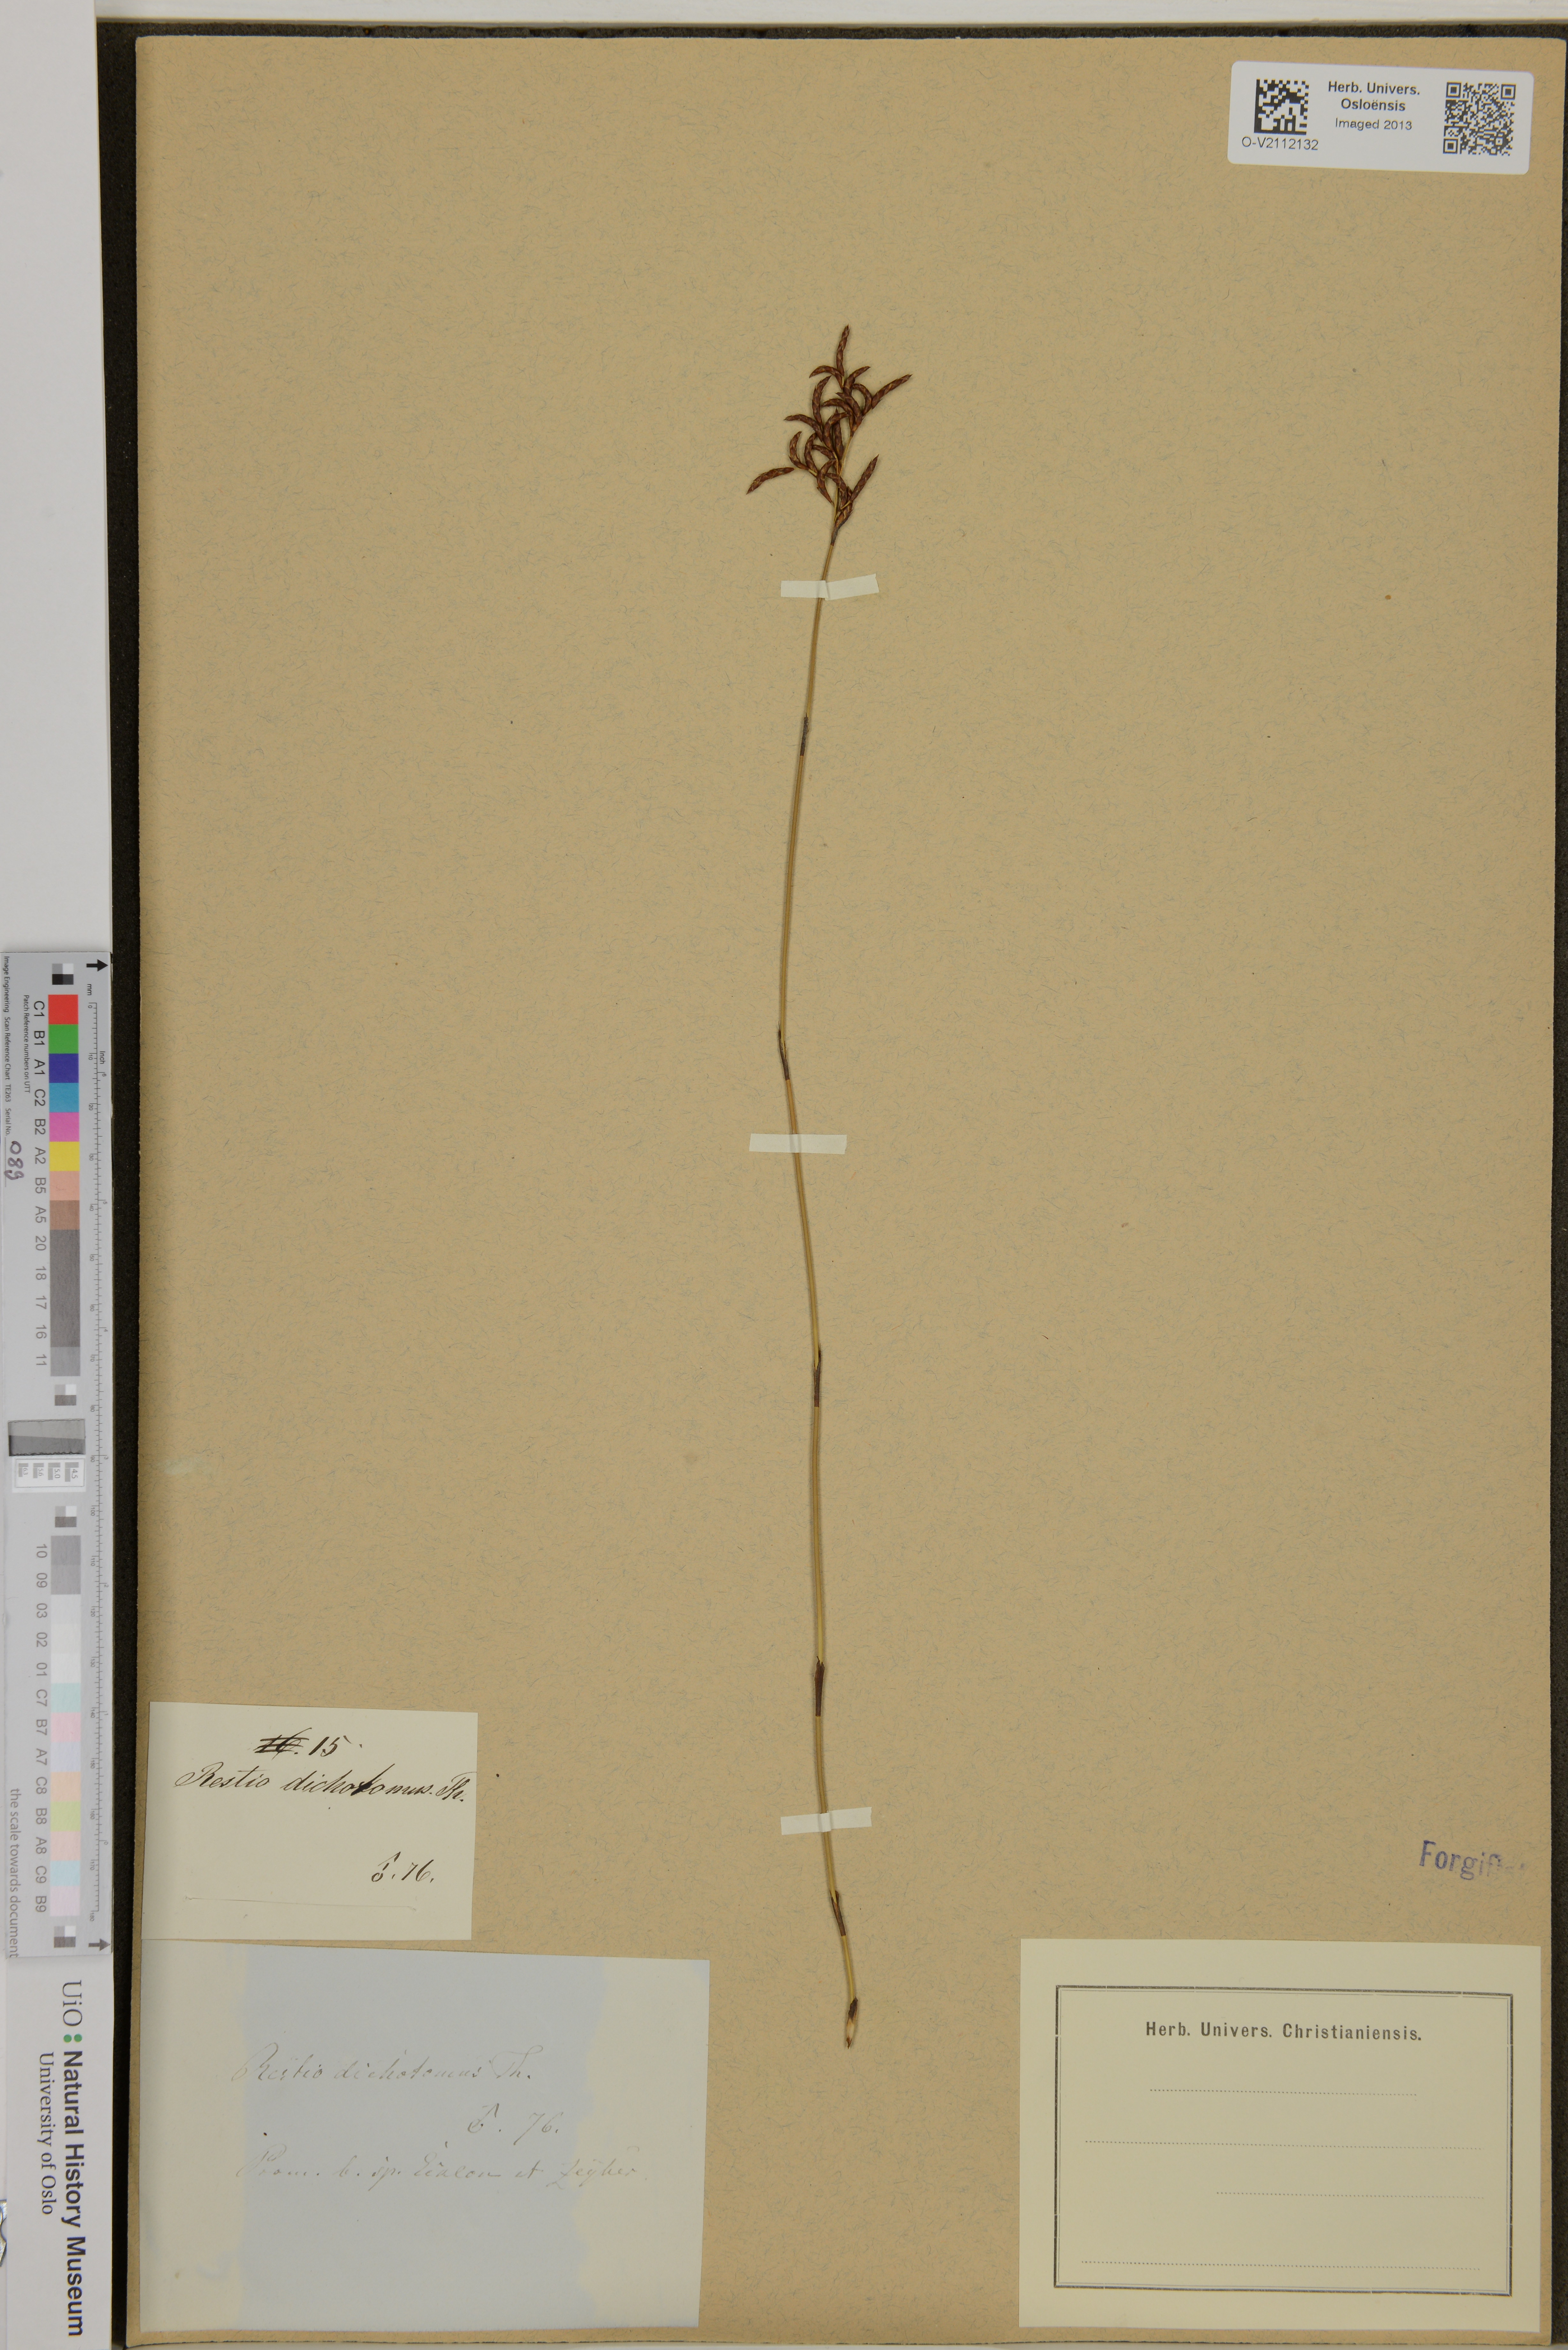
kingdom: Plantae
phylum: Tracheophyta
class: Liliopsida
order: Poales
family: Restionaceae
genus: Restio
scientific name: Restio
